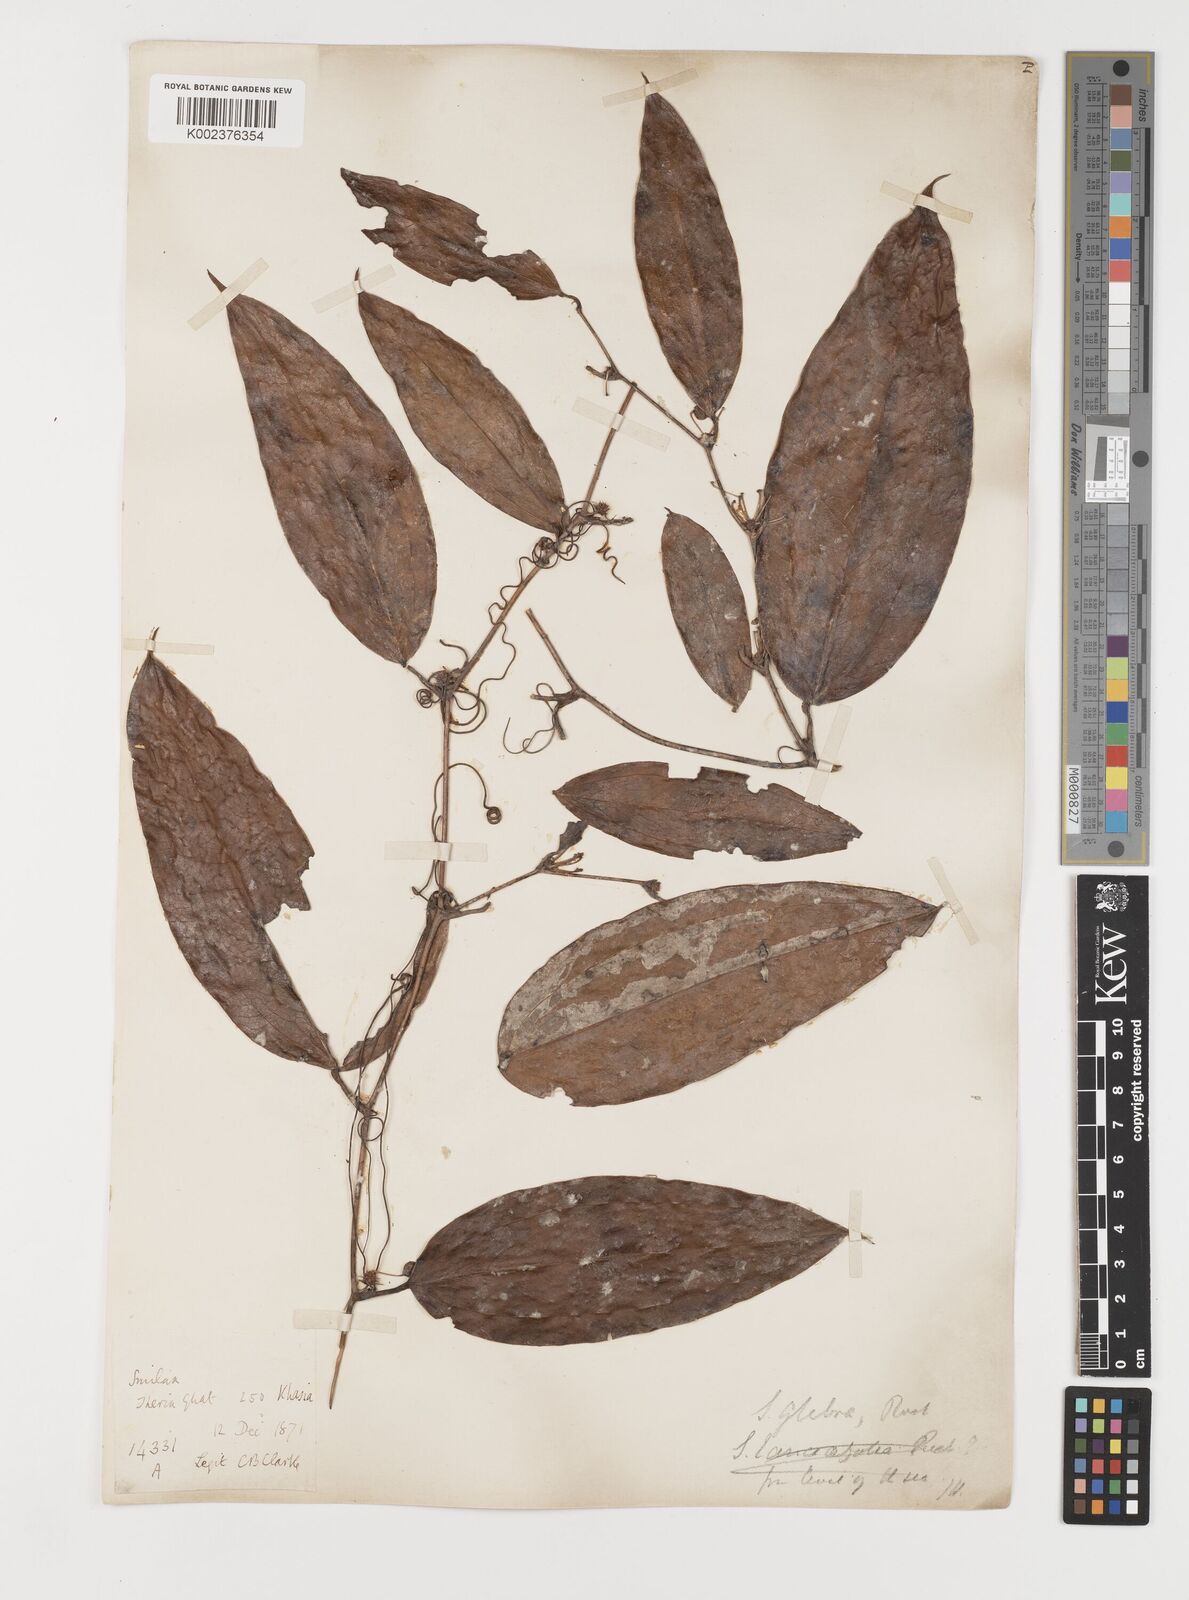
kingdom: Plantae
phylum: Tracheophyta
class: Liliopsida
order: Liliales
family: Smilacaceae
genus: Smilax
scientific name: Smilax glabra
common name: Chinese smilax
